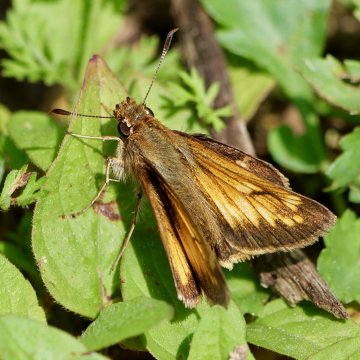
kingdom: Animalia
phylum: Arthropoda
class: Insecta
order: Lepidoptera
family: Hesperiidae
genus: Lon
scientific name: Lon hobomok
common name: Hobomok Skipper
